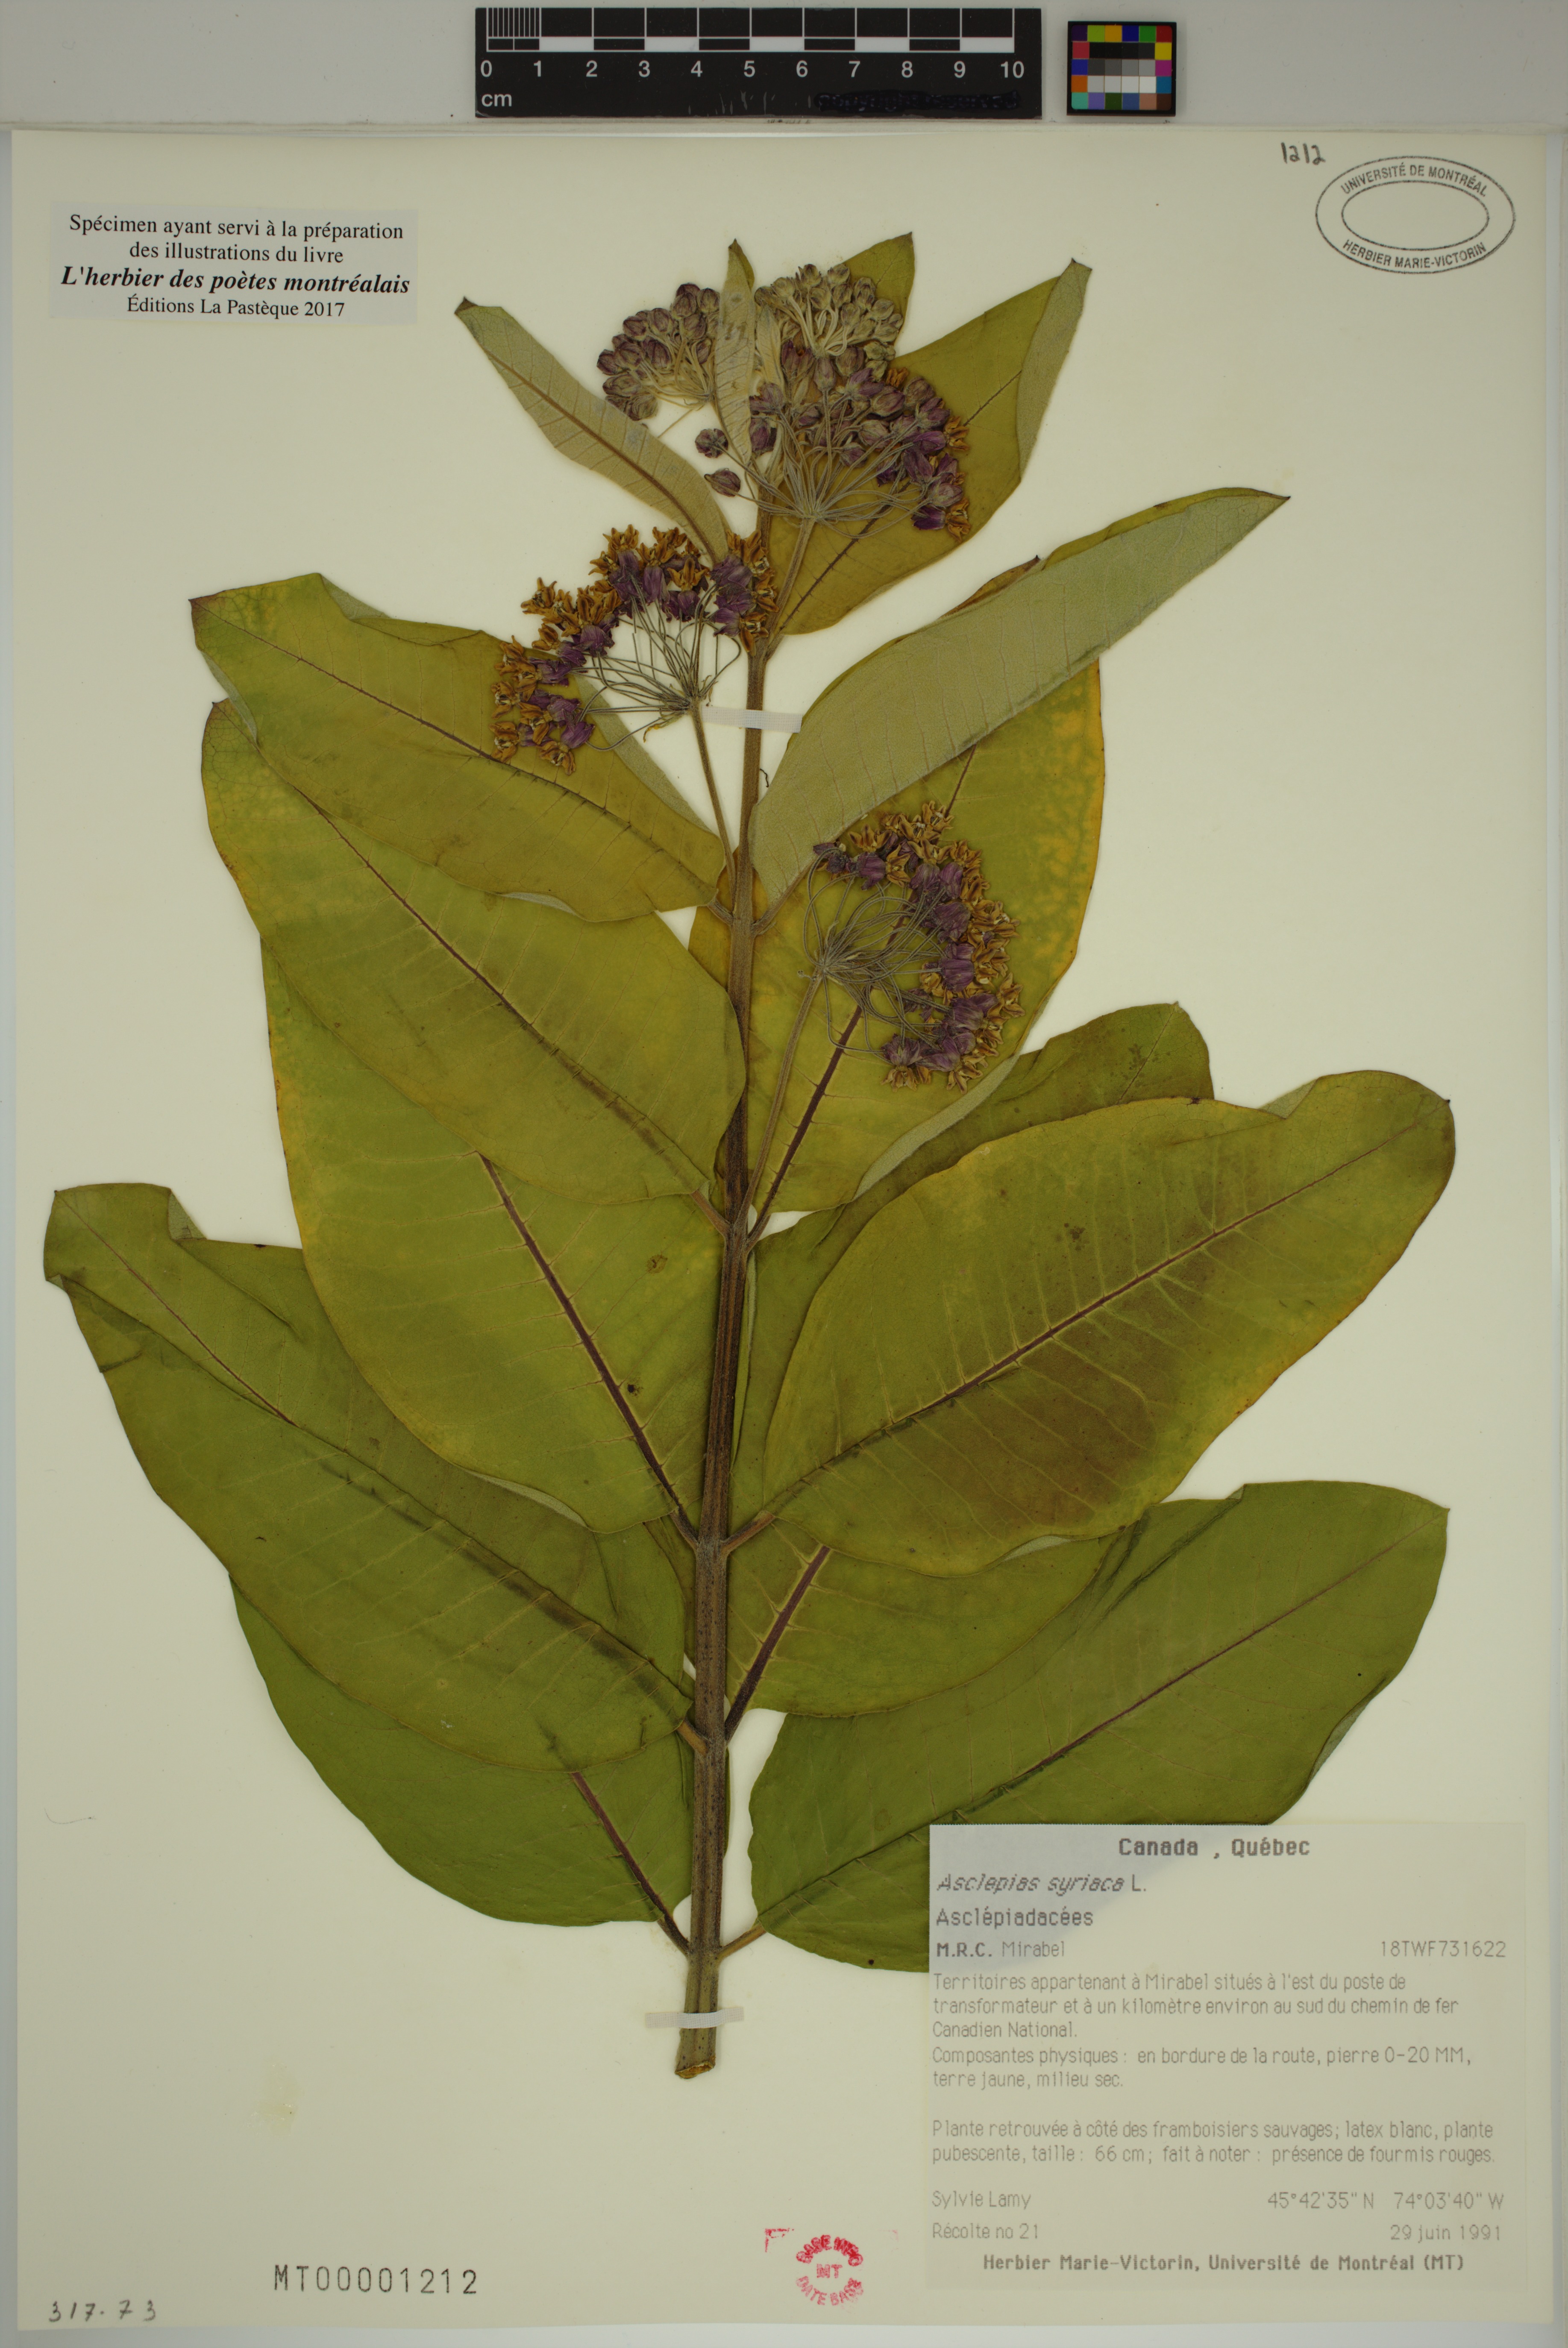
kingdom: Plantae
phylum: Tracheophyta
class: Magnoliopsida
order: Gentianales
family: Apocynaceae
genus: Asclepias
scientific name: Asclepias syriaca
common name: Common milkweed
